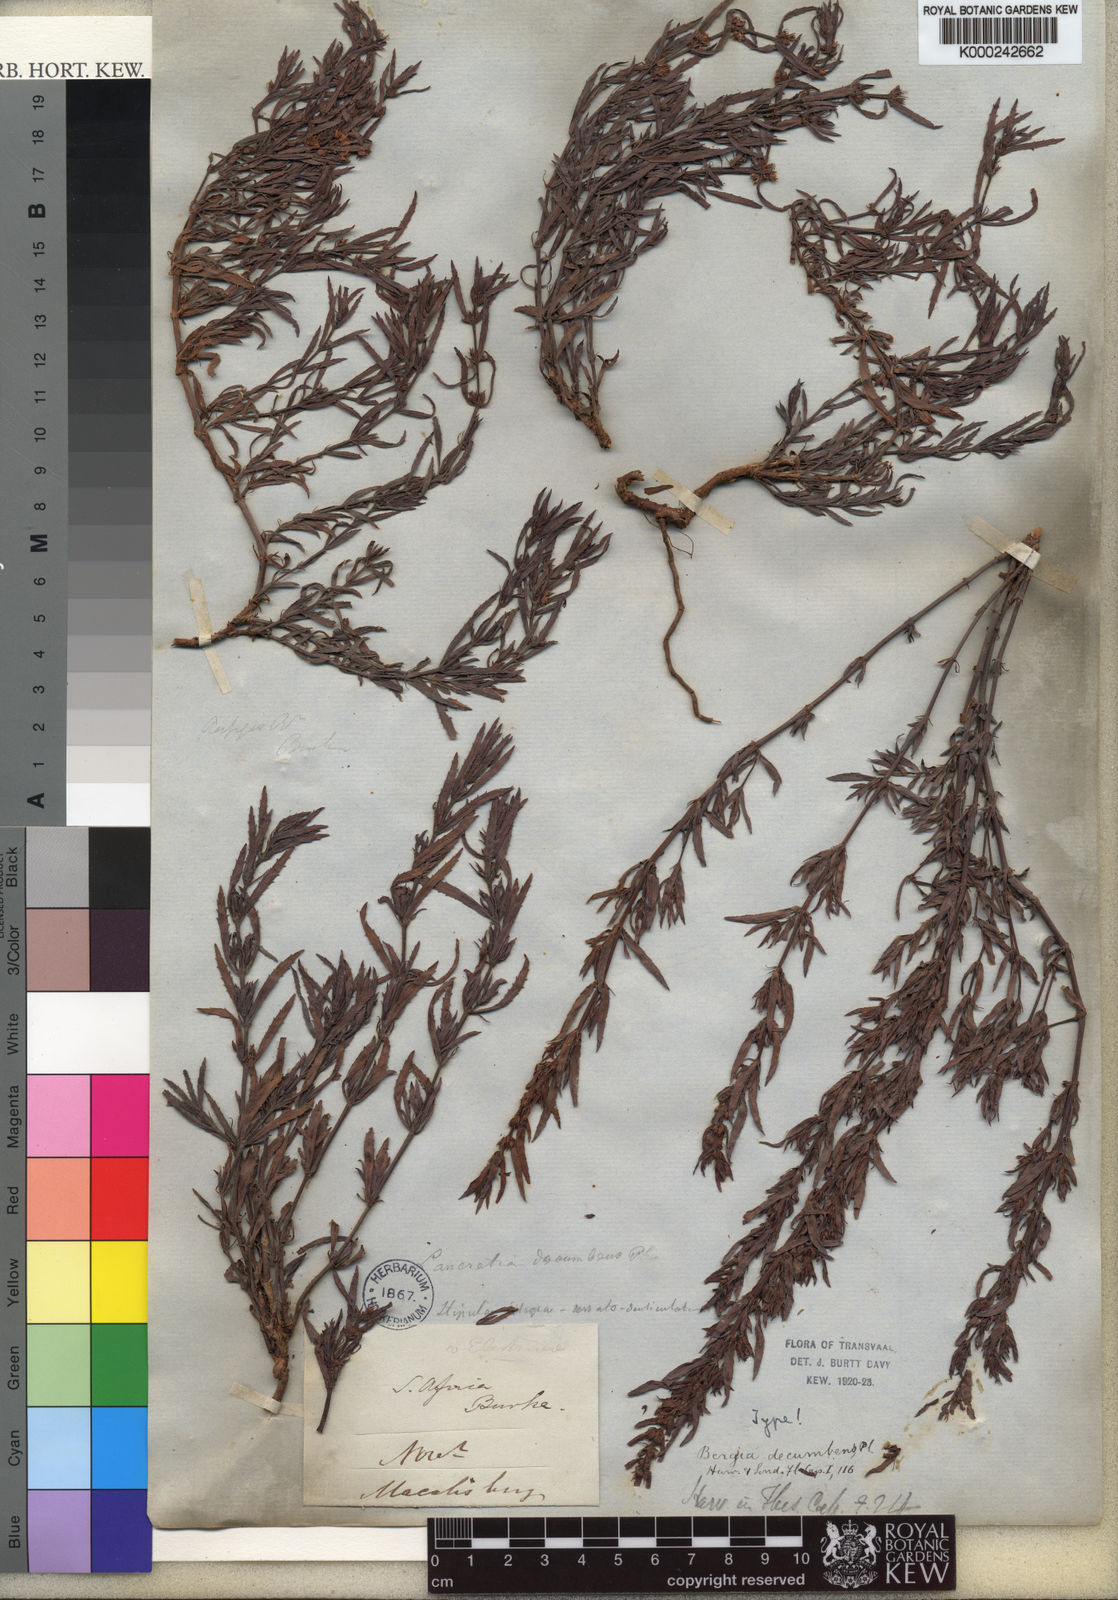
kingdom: Plantae
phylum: Tracheophyta
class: Magnoliopsida
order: Malpighiales
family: Elatinaceae
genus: Bergia
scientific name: Bergia decumbens
